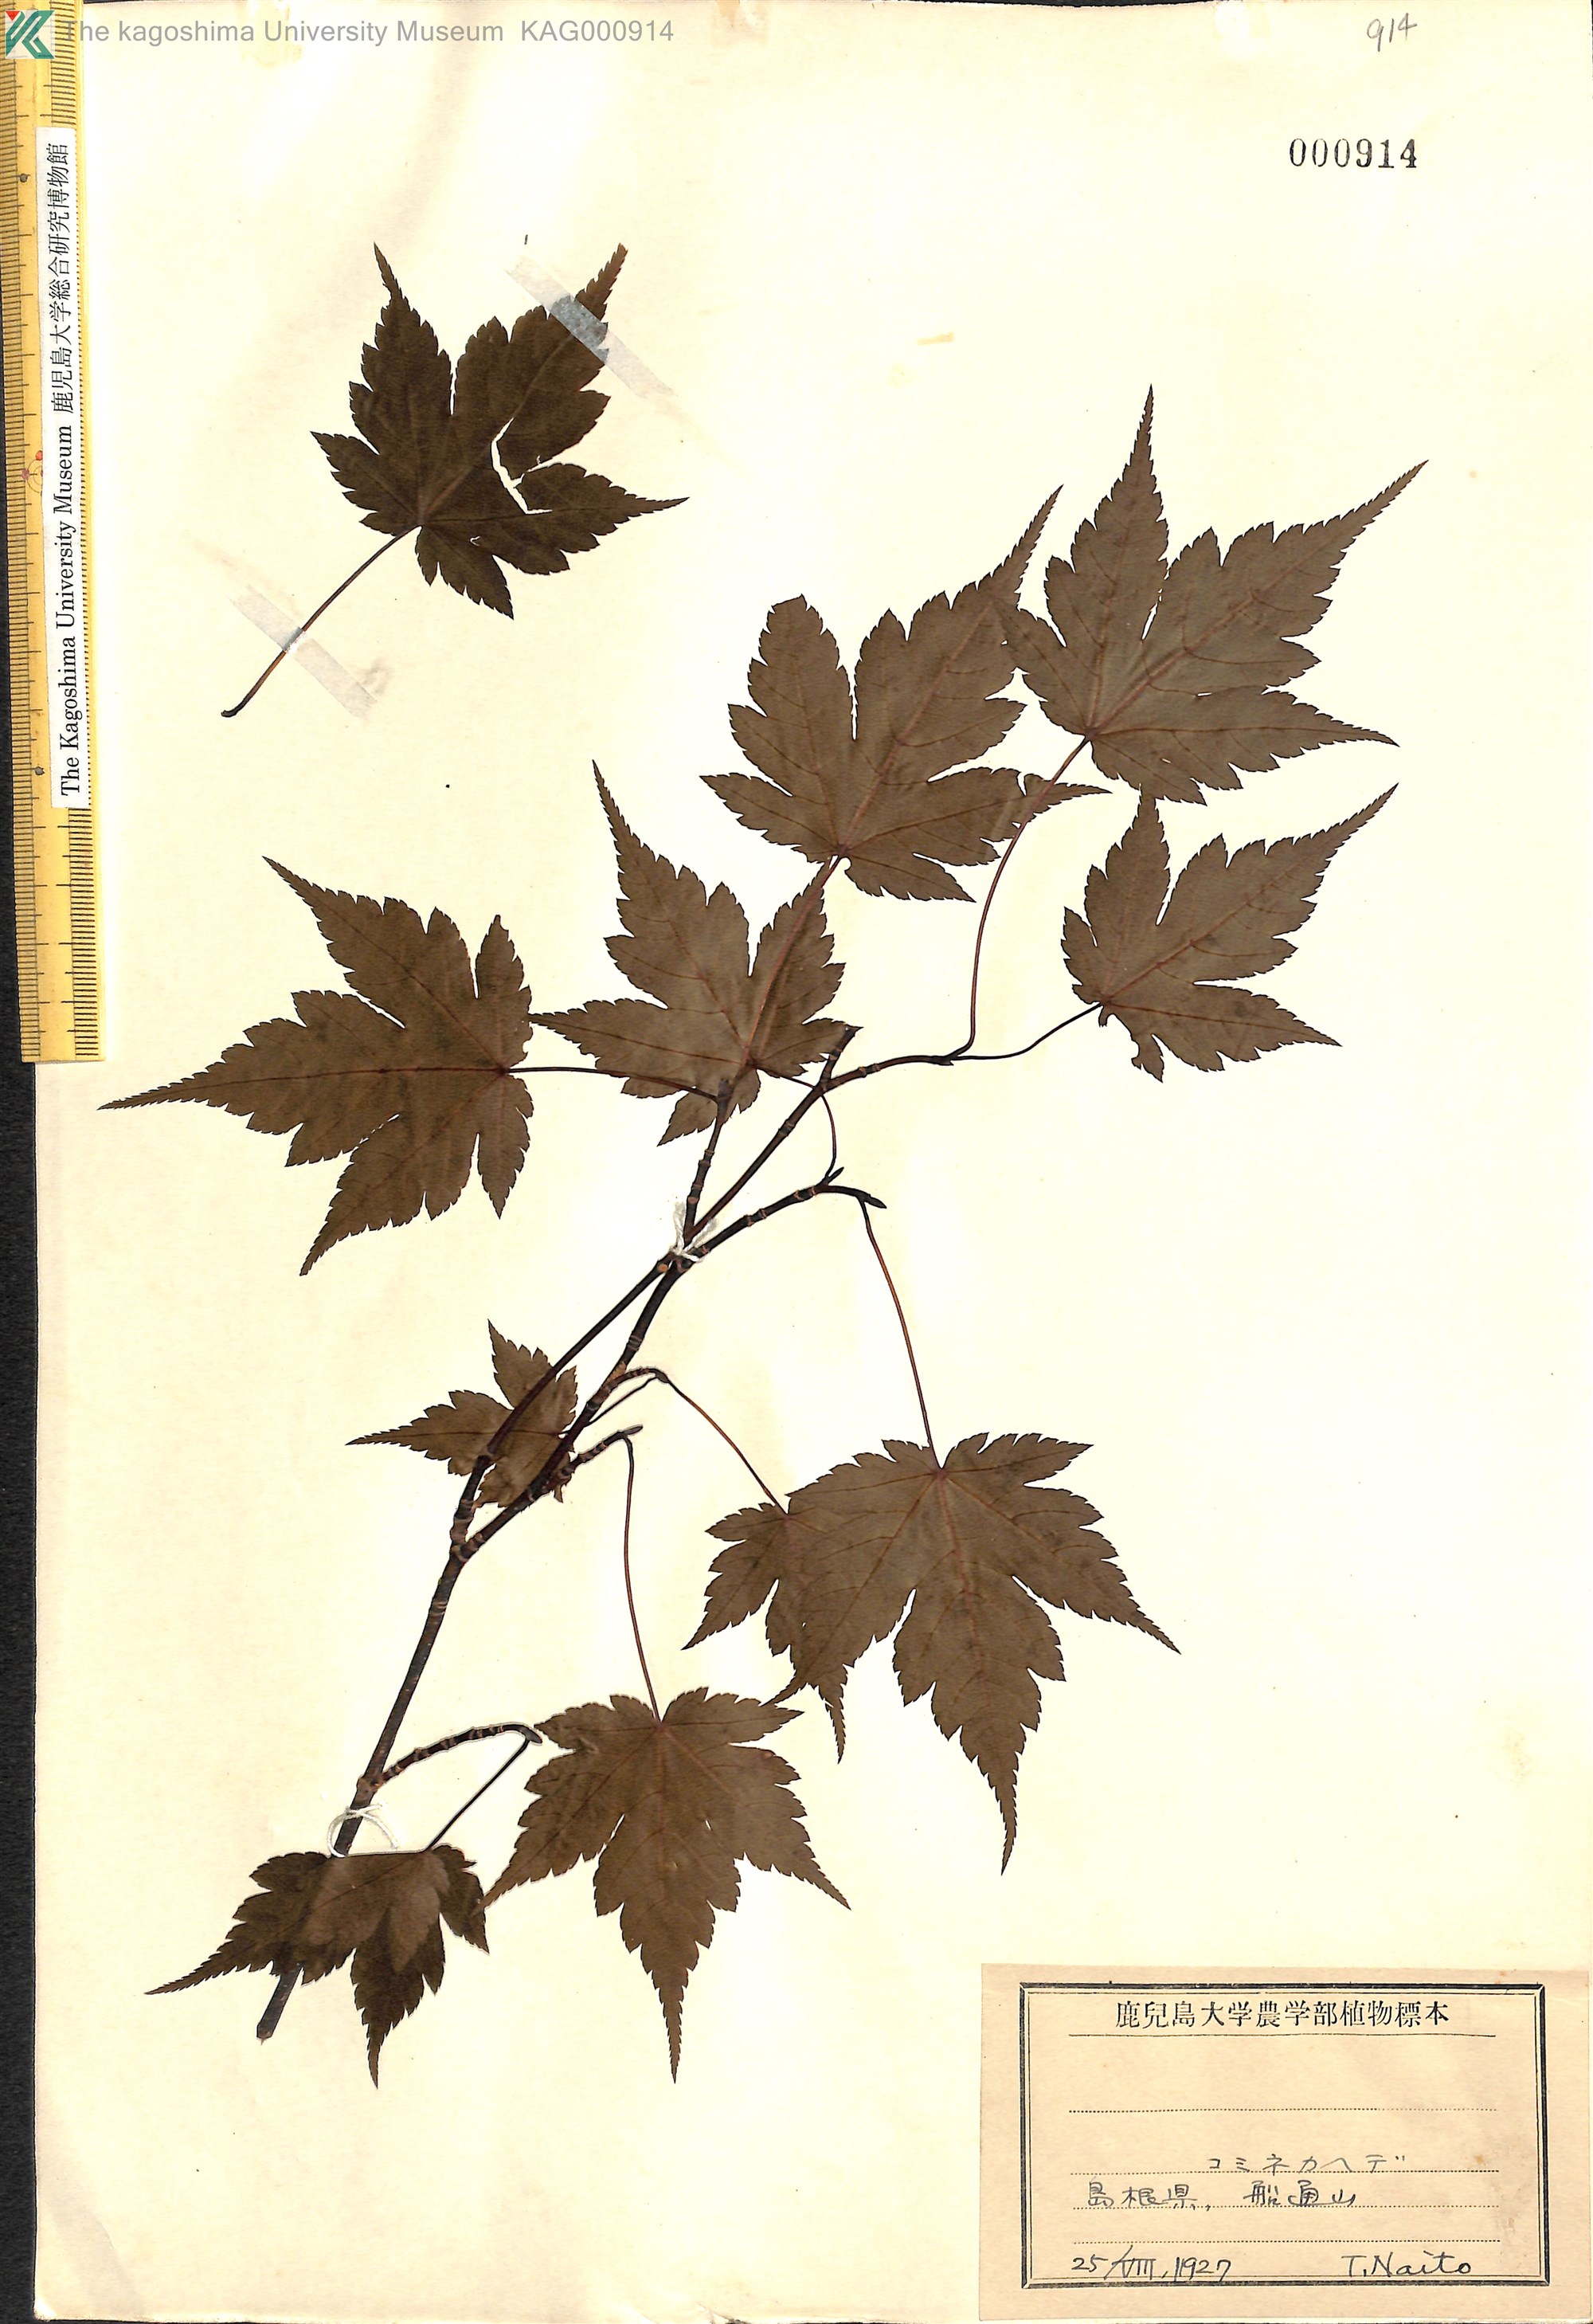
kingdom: Plantae
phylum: Tracheophyta
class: Magnoliopsida
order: Sapindales
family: Sapindaceae
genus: Acer
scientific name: Acer micranthum
